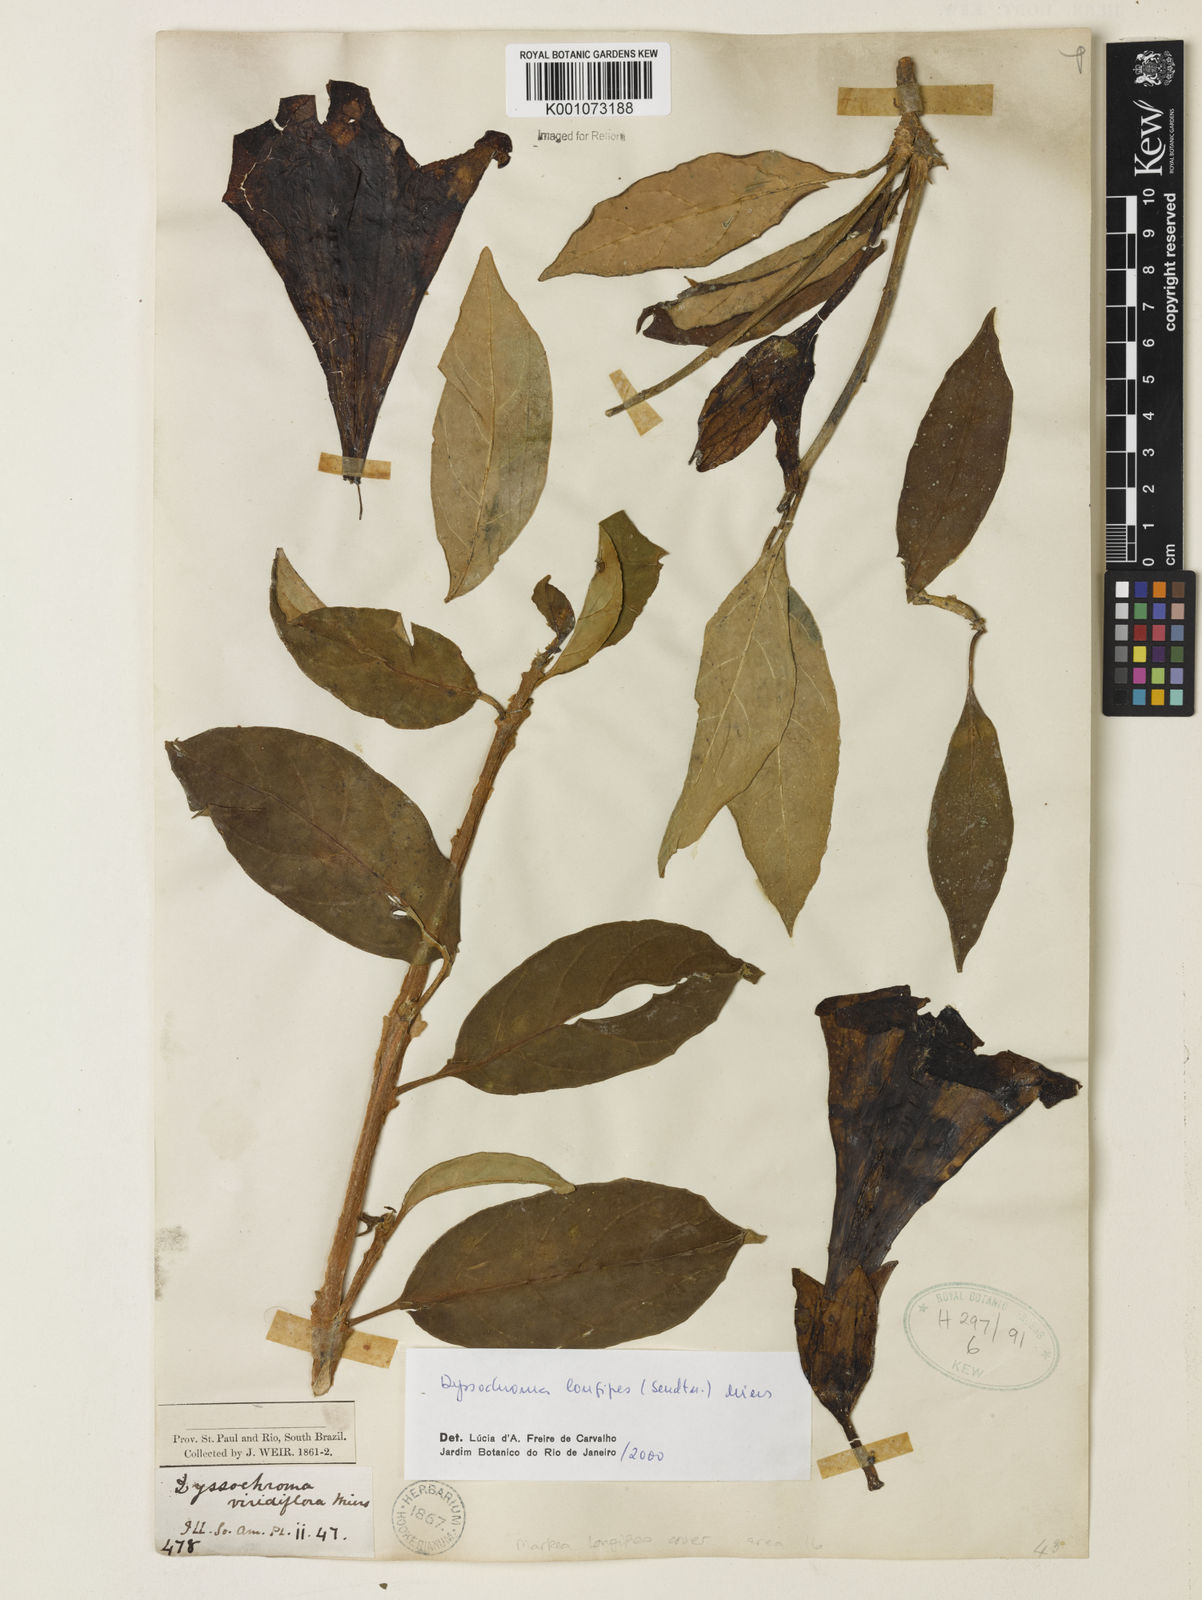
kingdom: Plantae
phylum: Tracheophyta
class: Magnoliopsida
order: Solanales
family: Solanaceae
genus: Dyssochroma
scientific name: Dyssochroma longipes
